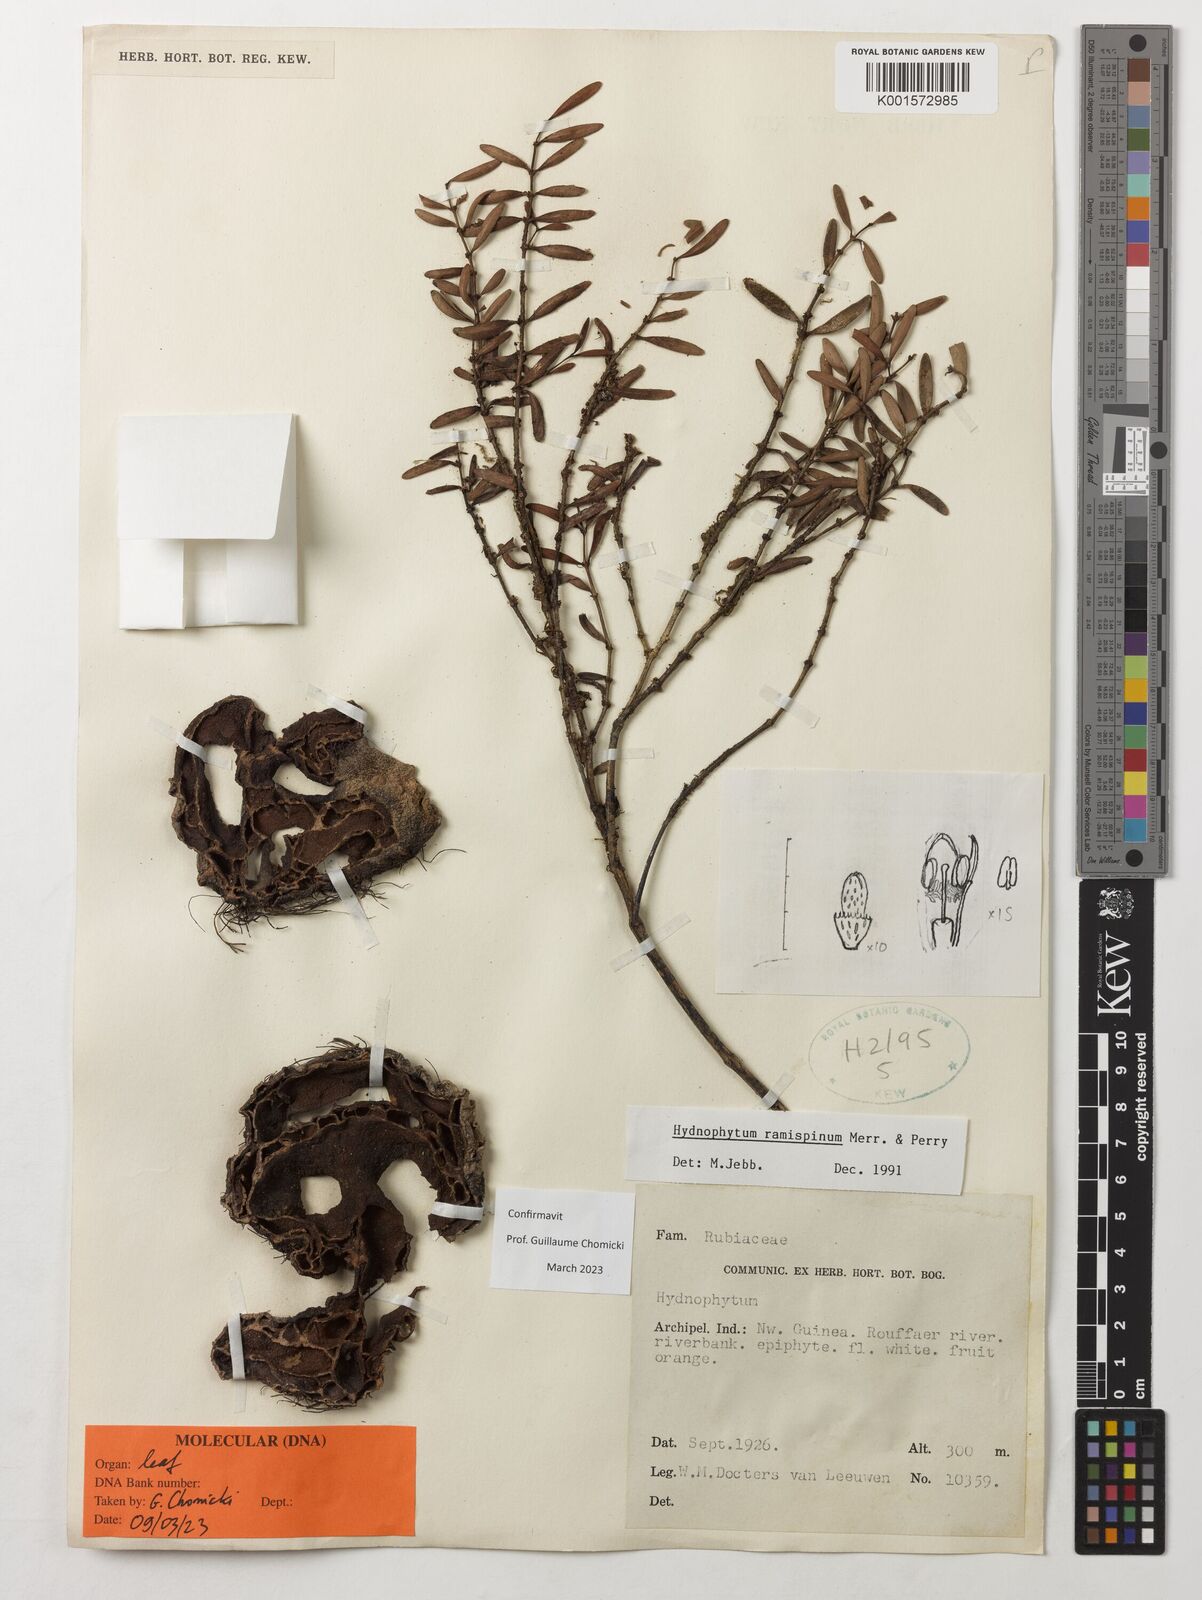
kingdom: Plantae
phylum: Tracheophyta
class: Magnoliopsida
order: Gentianales
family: Rubiaceae
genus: Hydnophytum
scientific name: Hydnophytum ramispinum
